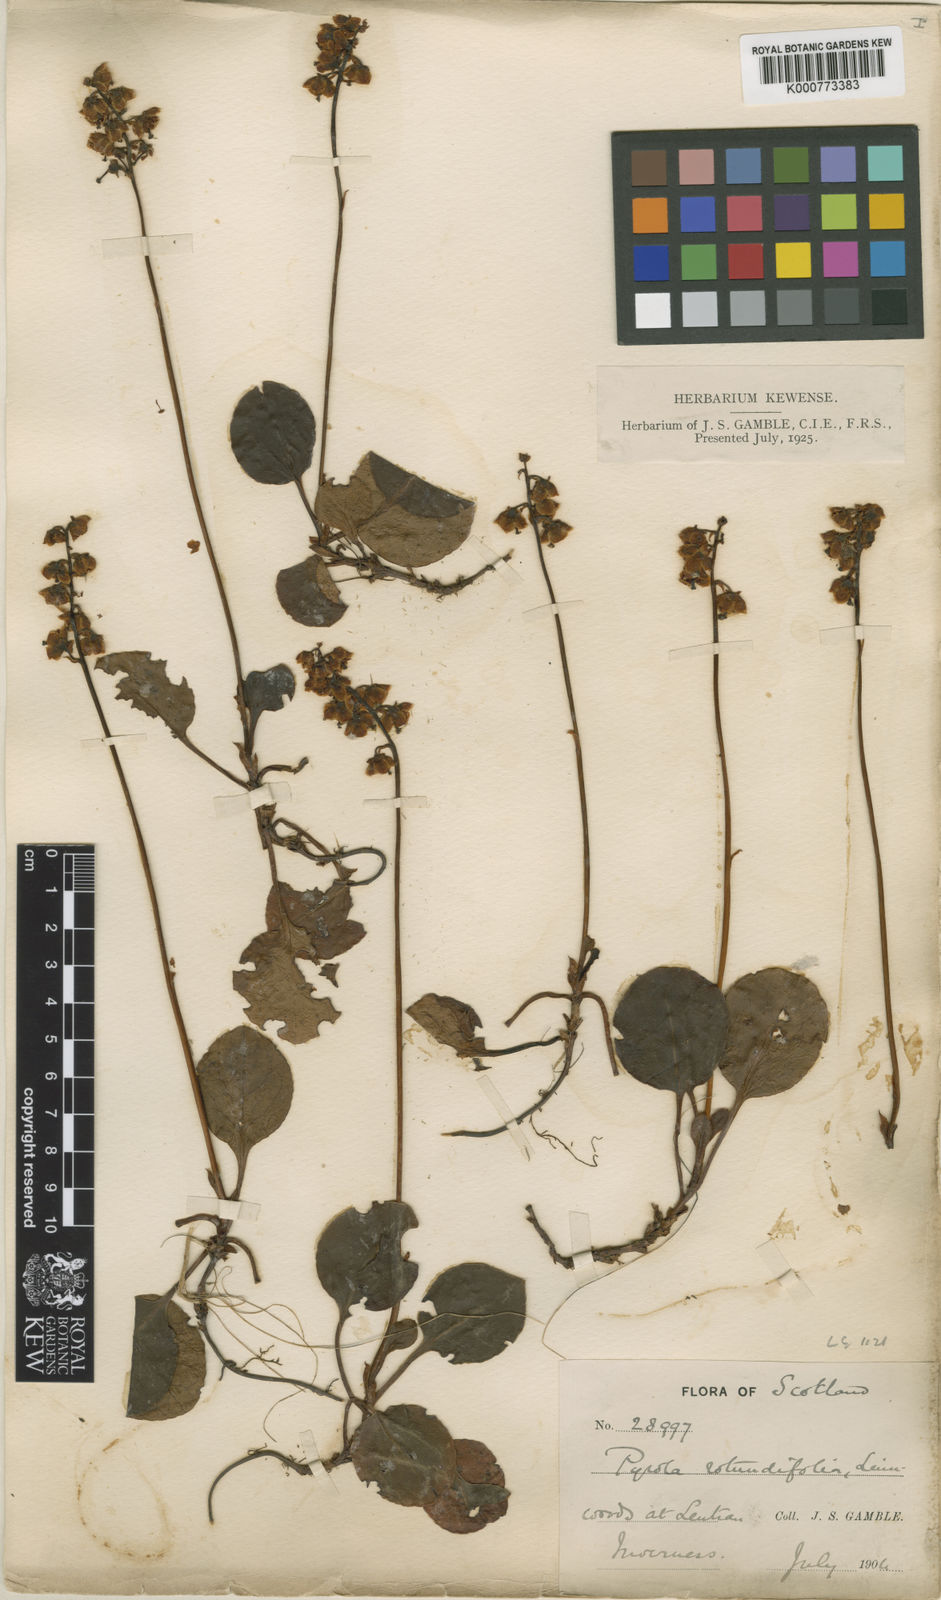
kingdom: Plantae
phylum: Tracheophyta
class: Magnoliopsida
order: Ericales
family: Ericaceae
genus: Pyrola
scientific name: Pyrola media
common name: Intermediate wintergreen
